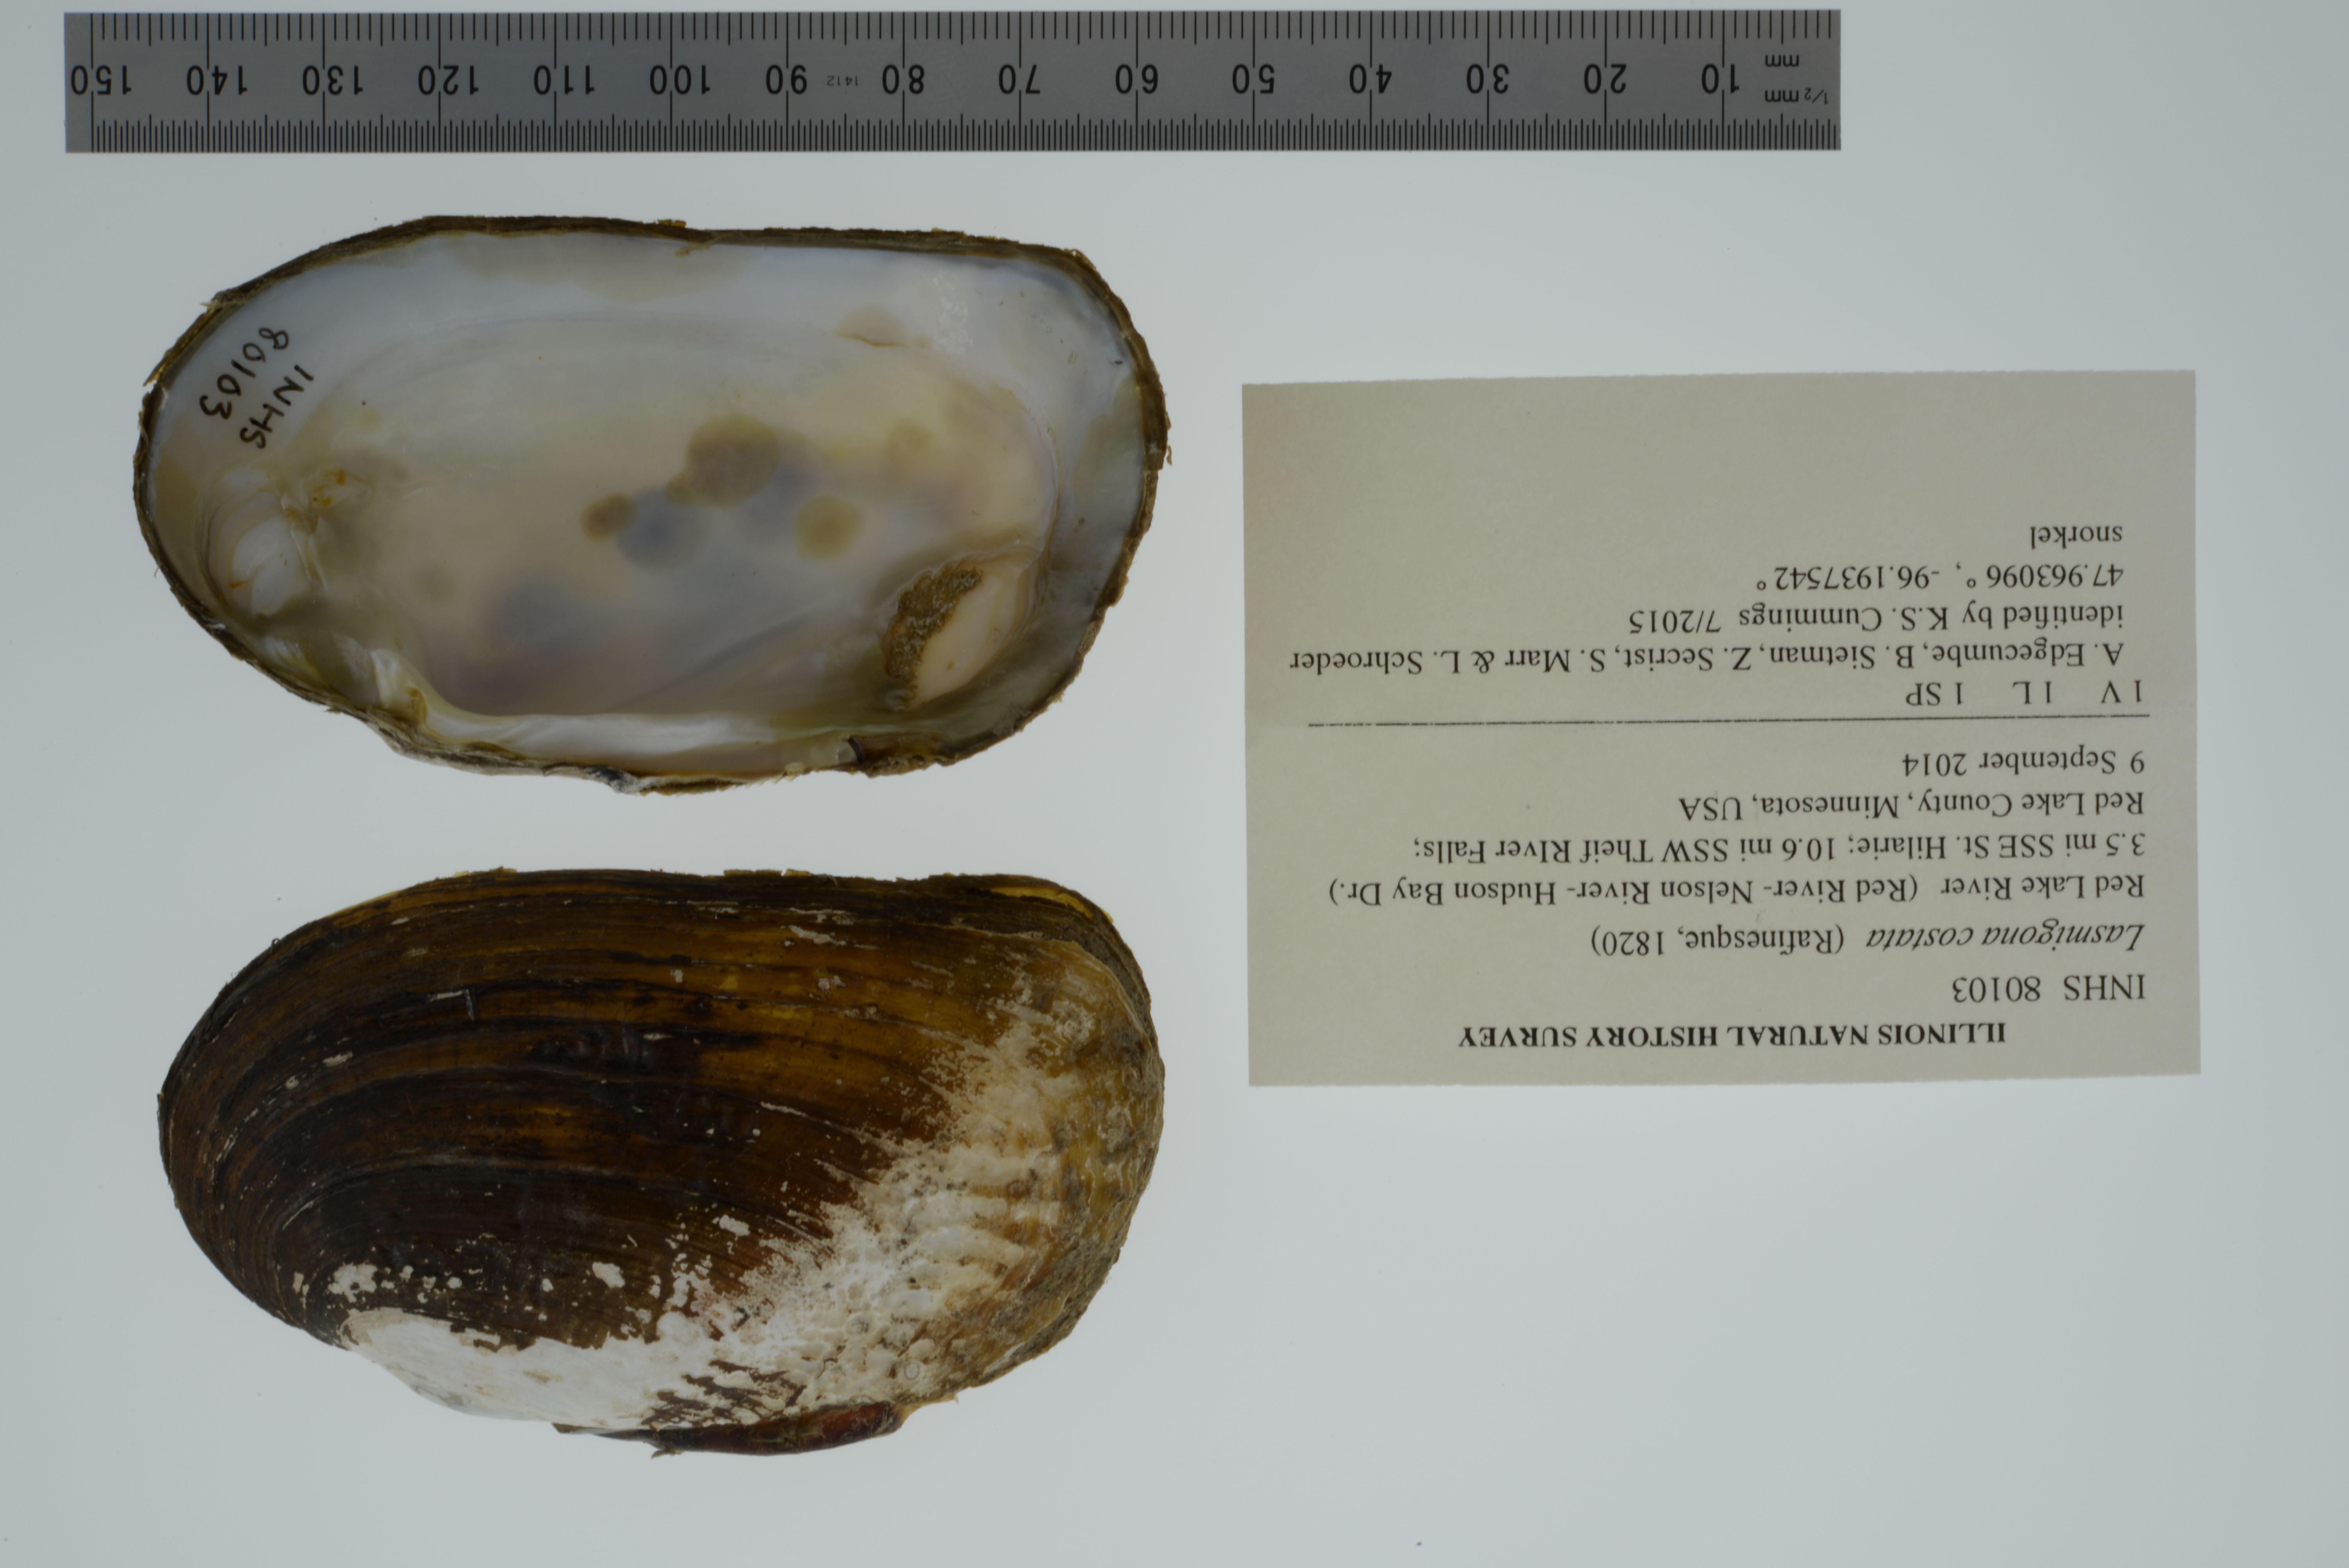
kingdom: Animalia
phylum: Mollusca
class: Bivalvia
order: Unionida
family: Unionidae
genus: Lasmigona
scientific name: Lasmigona costata
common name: Flutedshell
